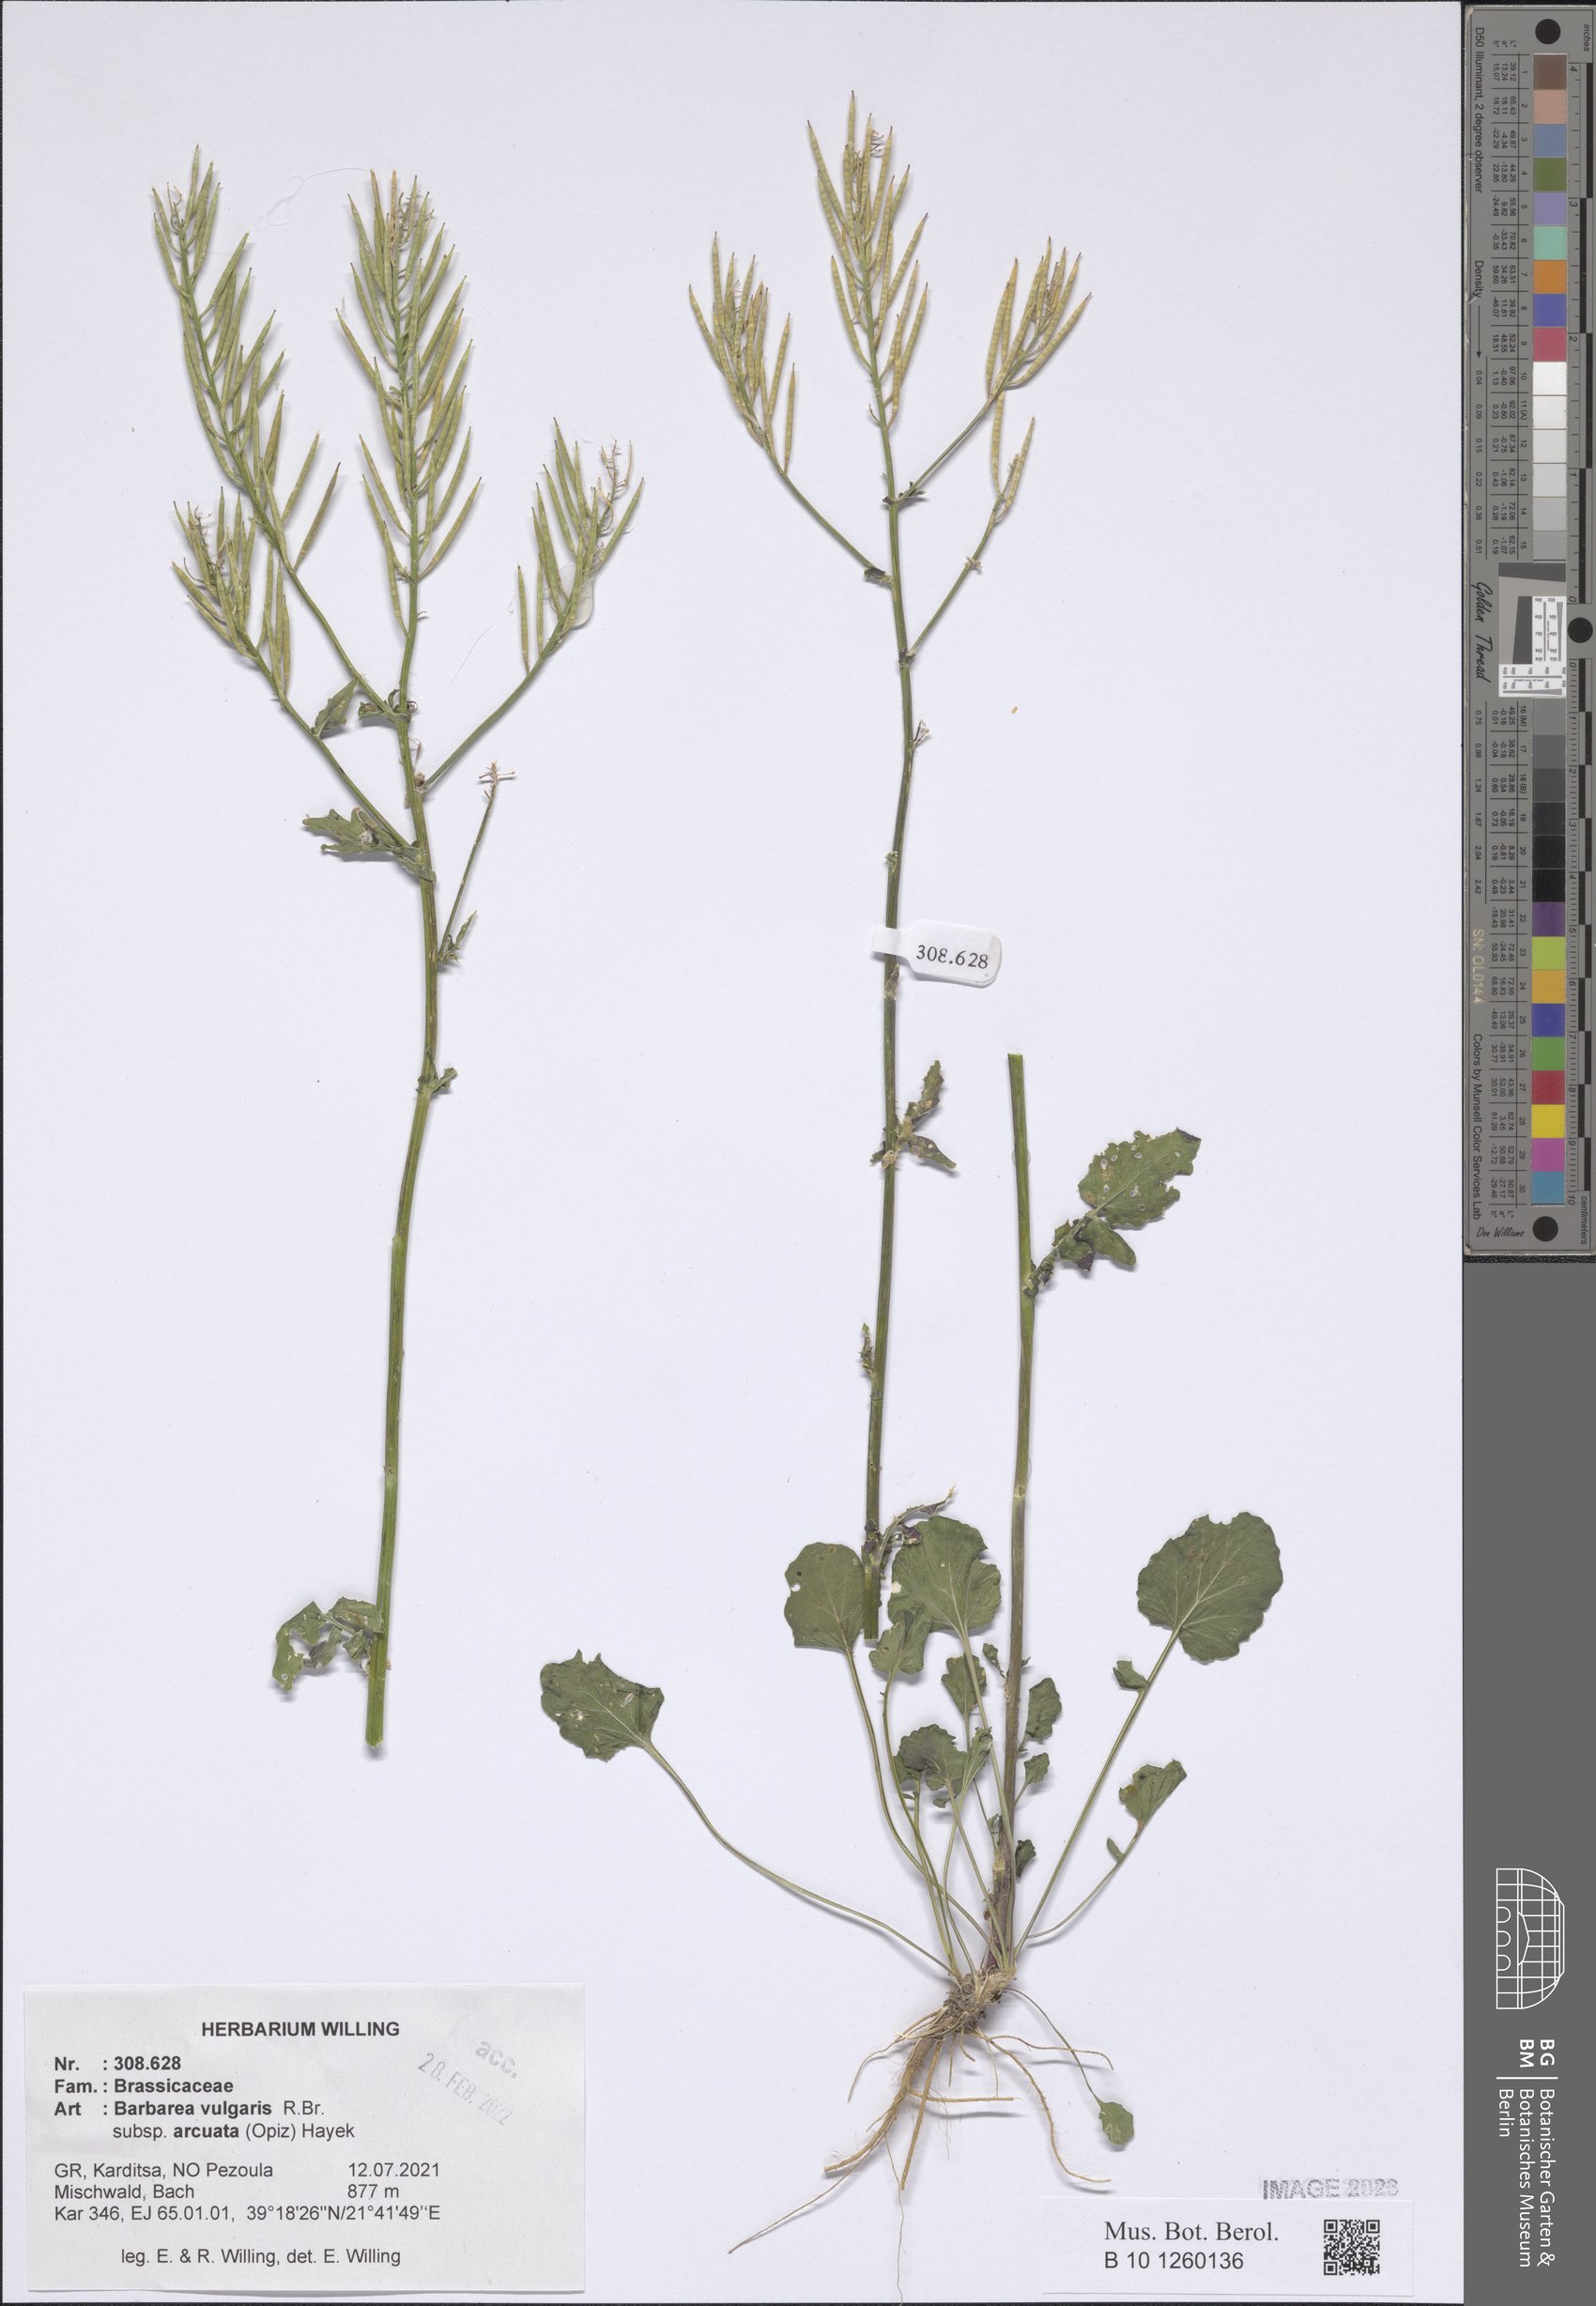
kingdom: Plantae
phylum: Tracheophyta
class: Magnoliopsida
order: Brassicales
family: Brassicaceae
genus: Barbarea
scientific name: Barbarea vulgaris
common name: Cressy-greens
